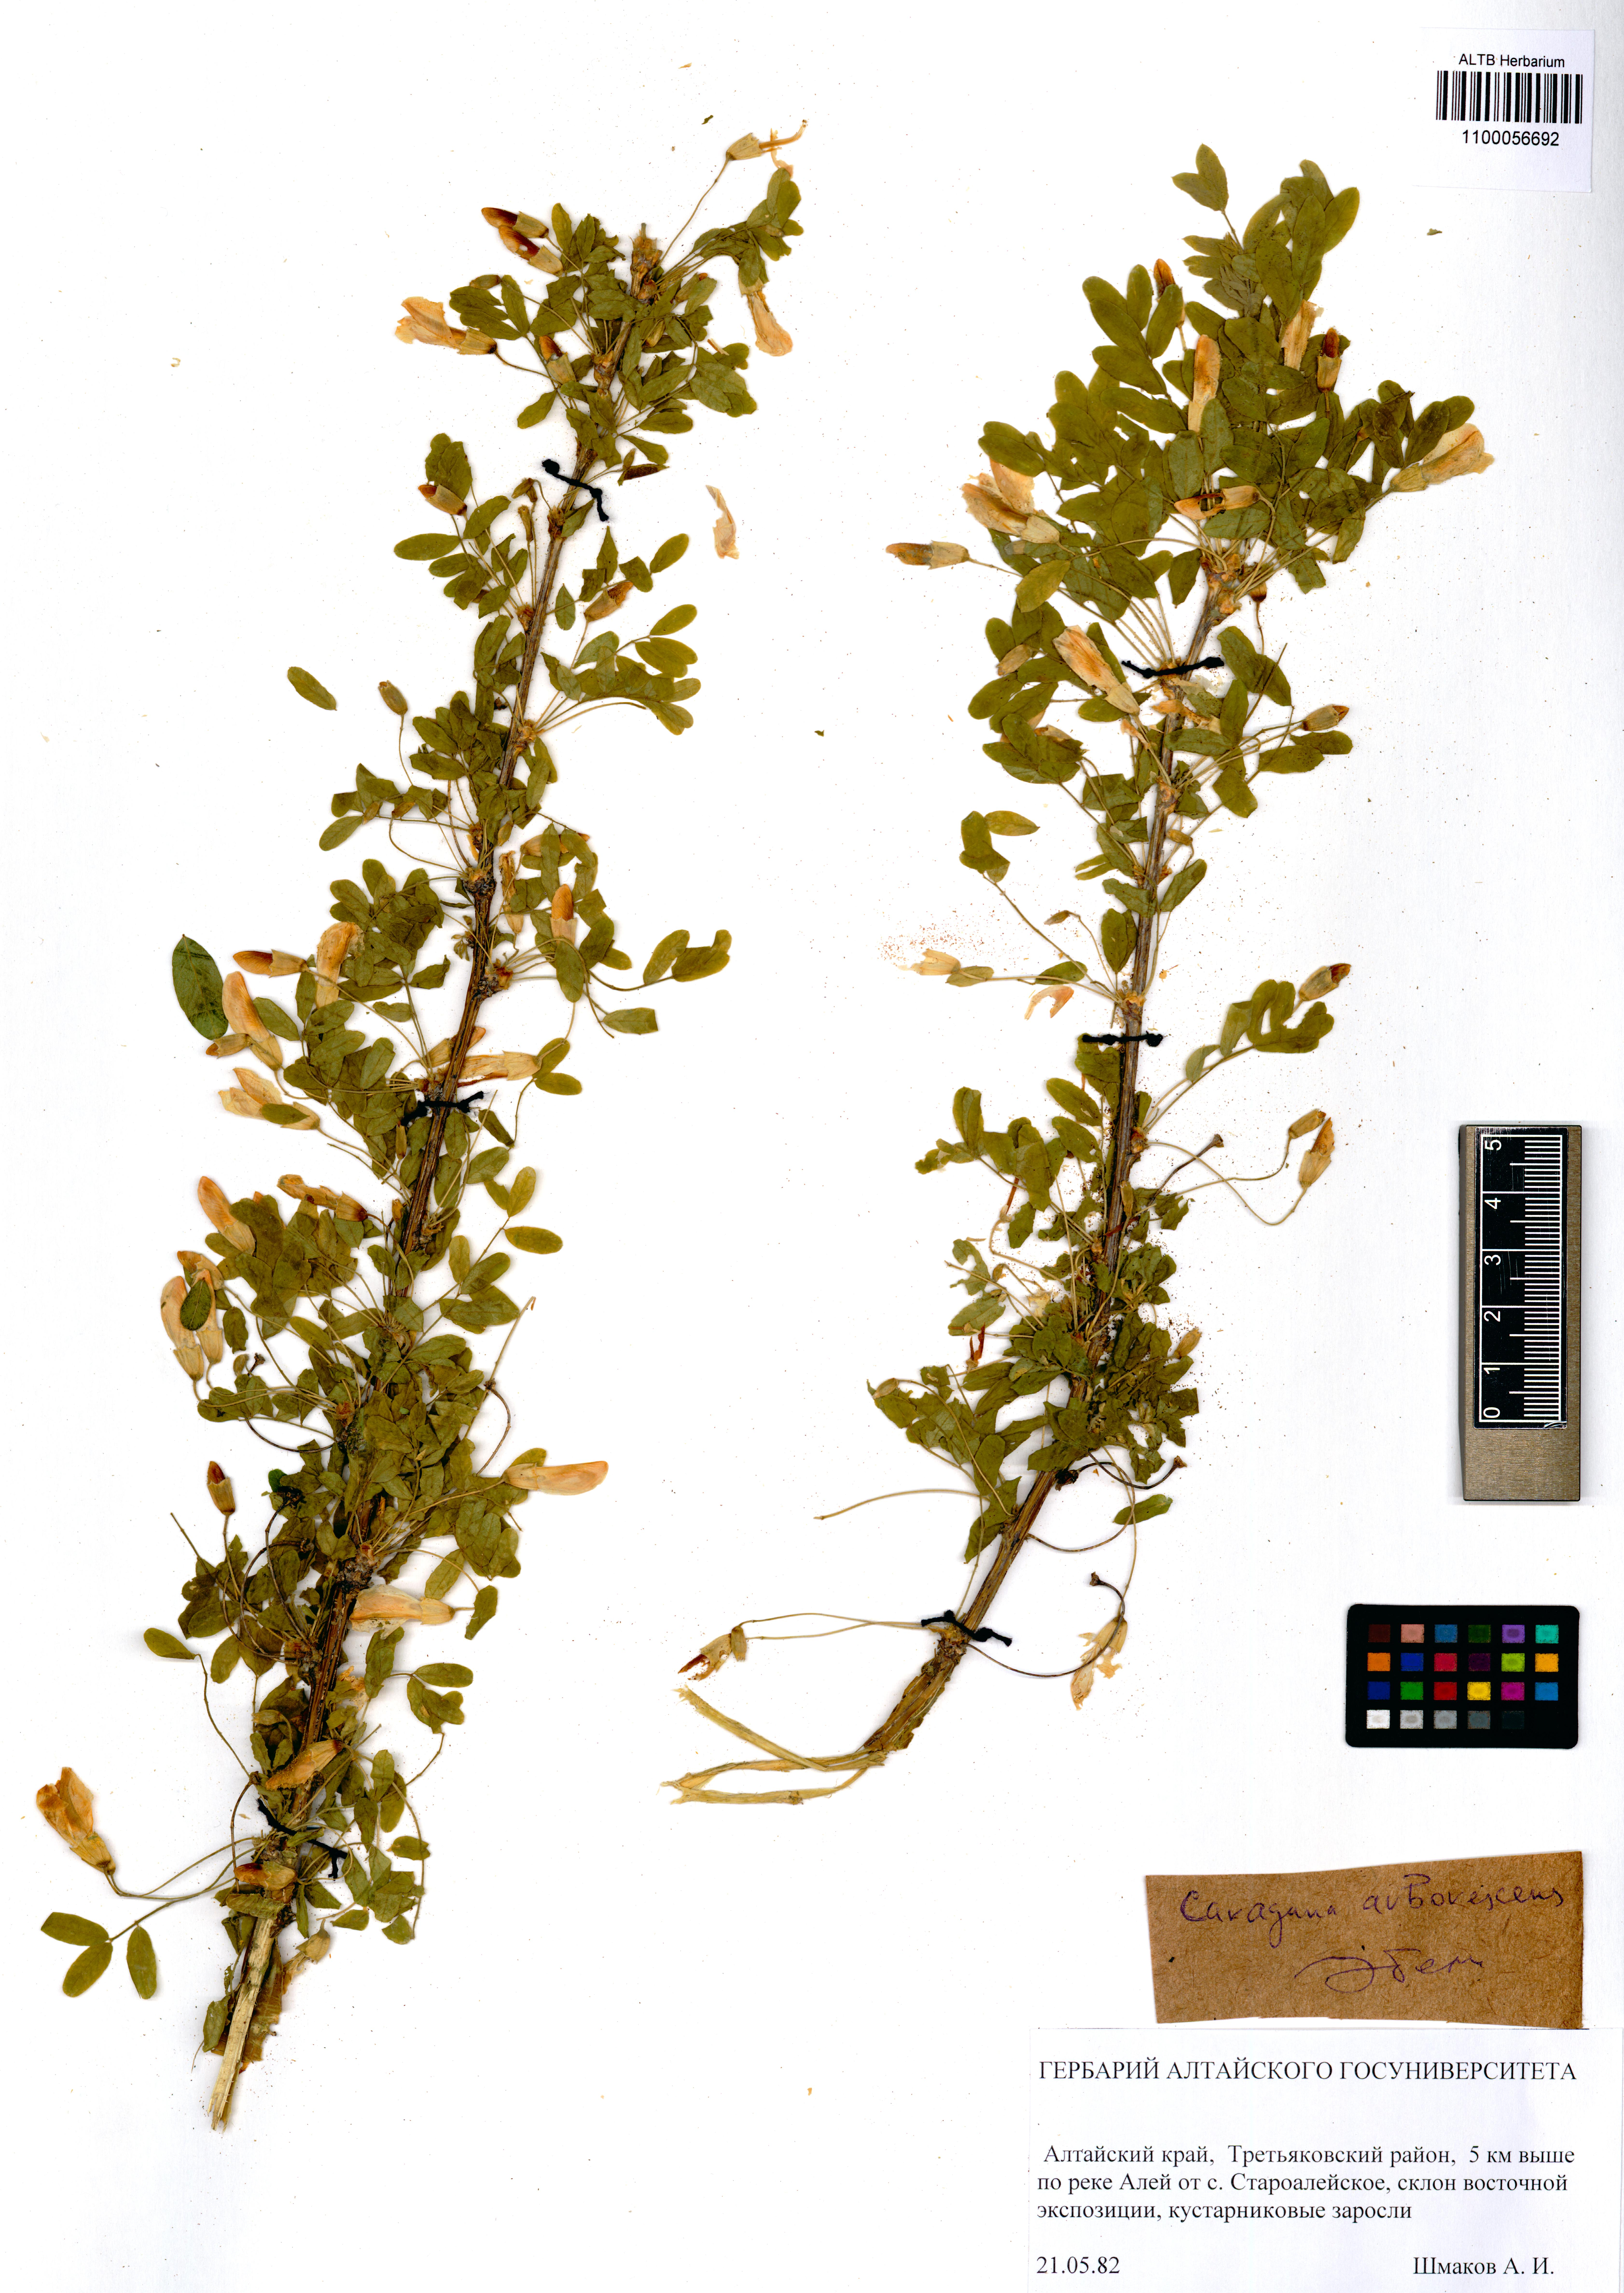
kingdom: Plantae
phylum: Tracheophyta
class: Magnoliopsida
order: Fabales
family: Fabaceae
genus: Caragana
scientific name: Caragana arborescens
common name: Siberian peashrub
